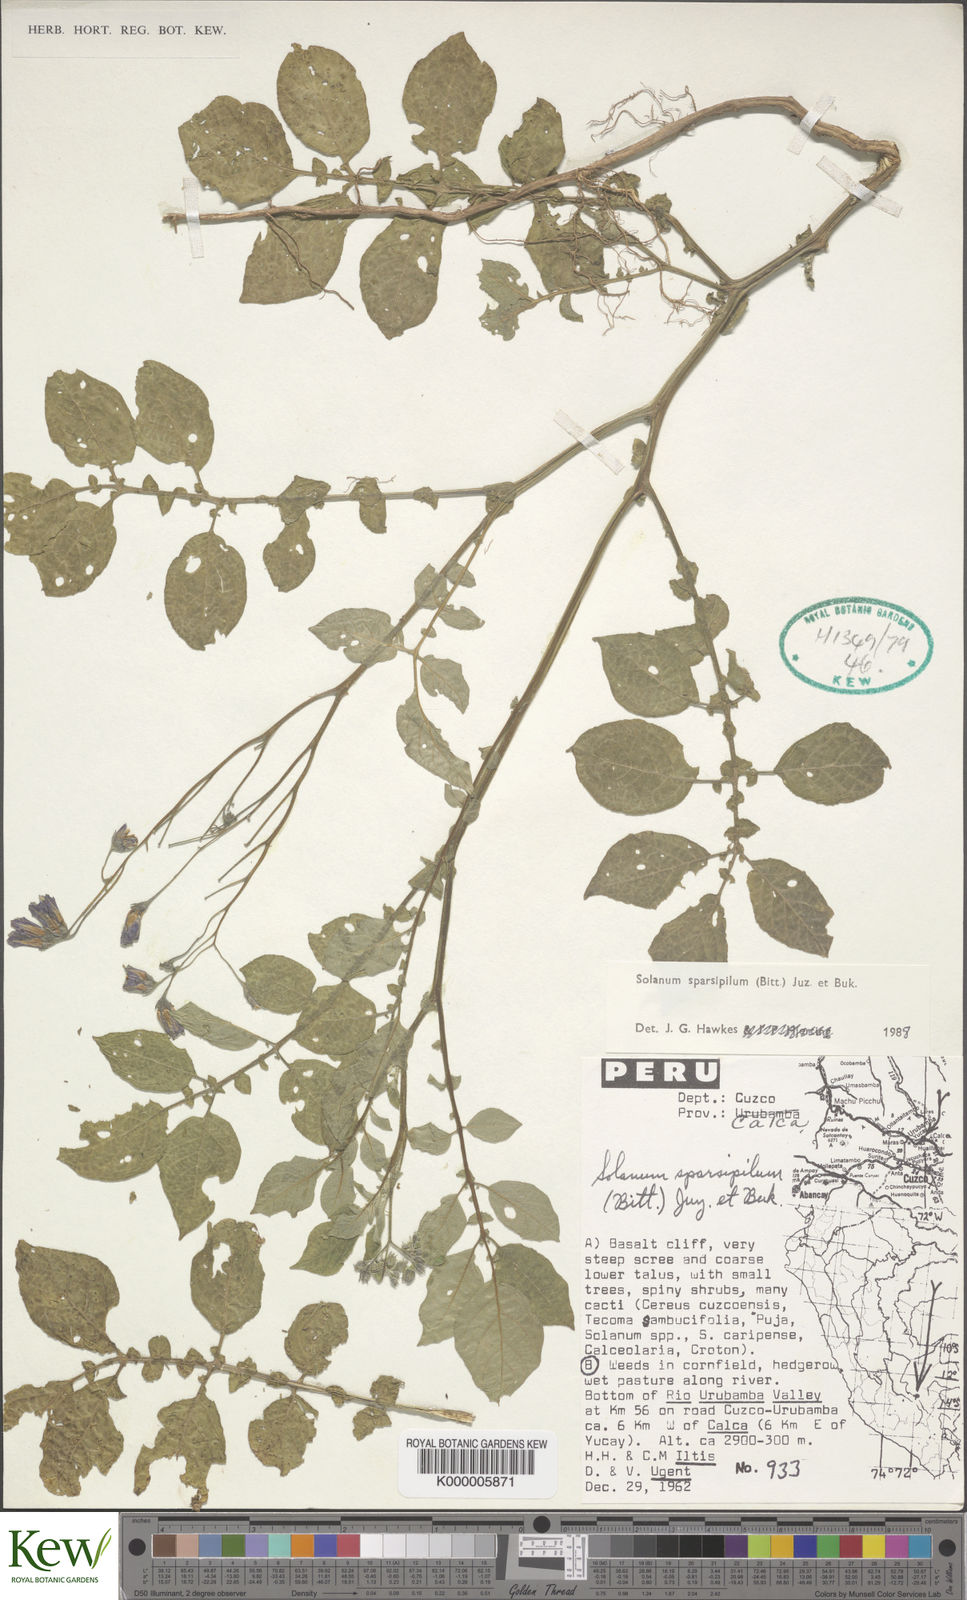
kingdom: Plantae
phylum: Tracheophyta
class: Magnoliopsida
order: Solanales
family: Solanaceae
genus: Solanum
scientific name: Solanum brevicaule
